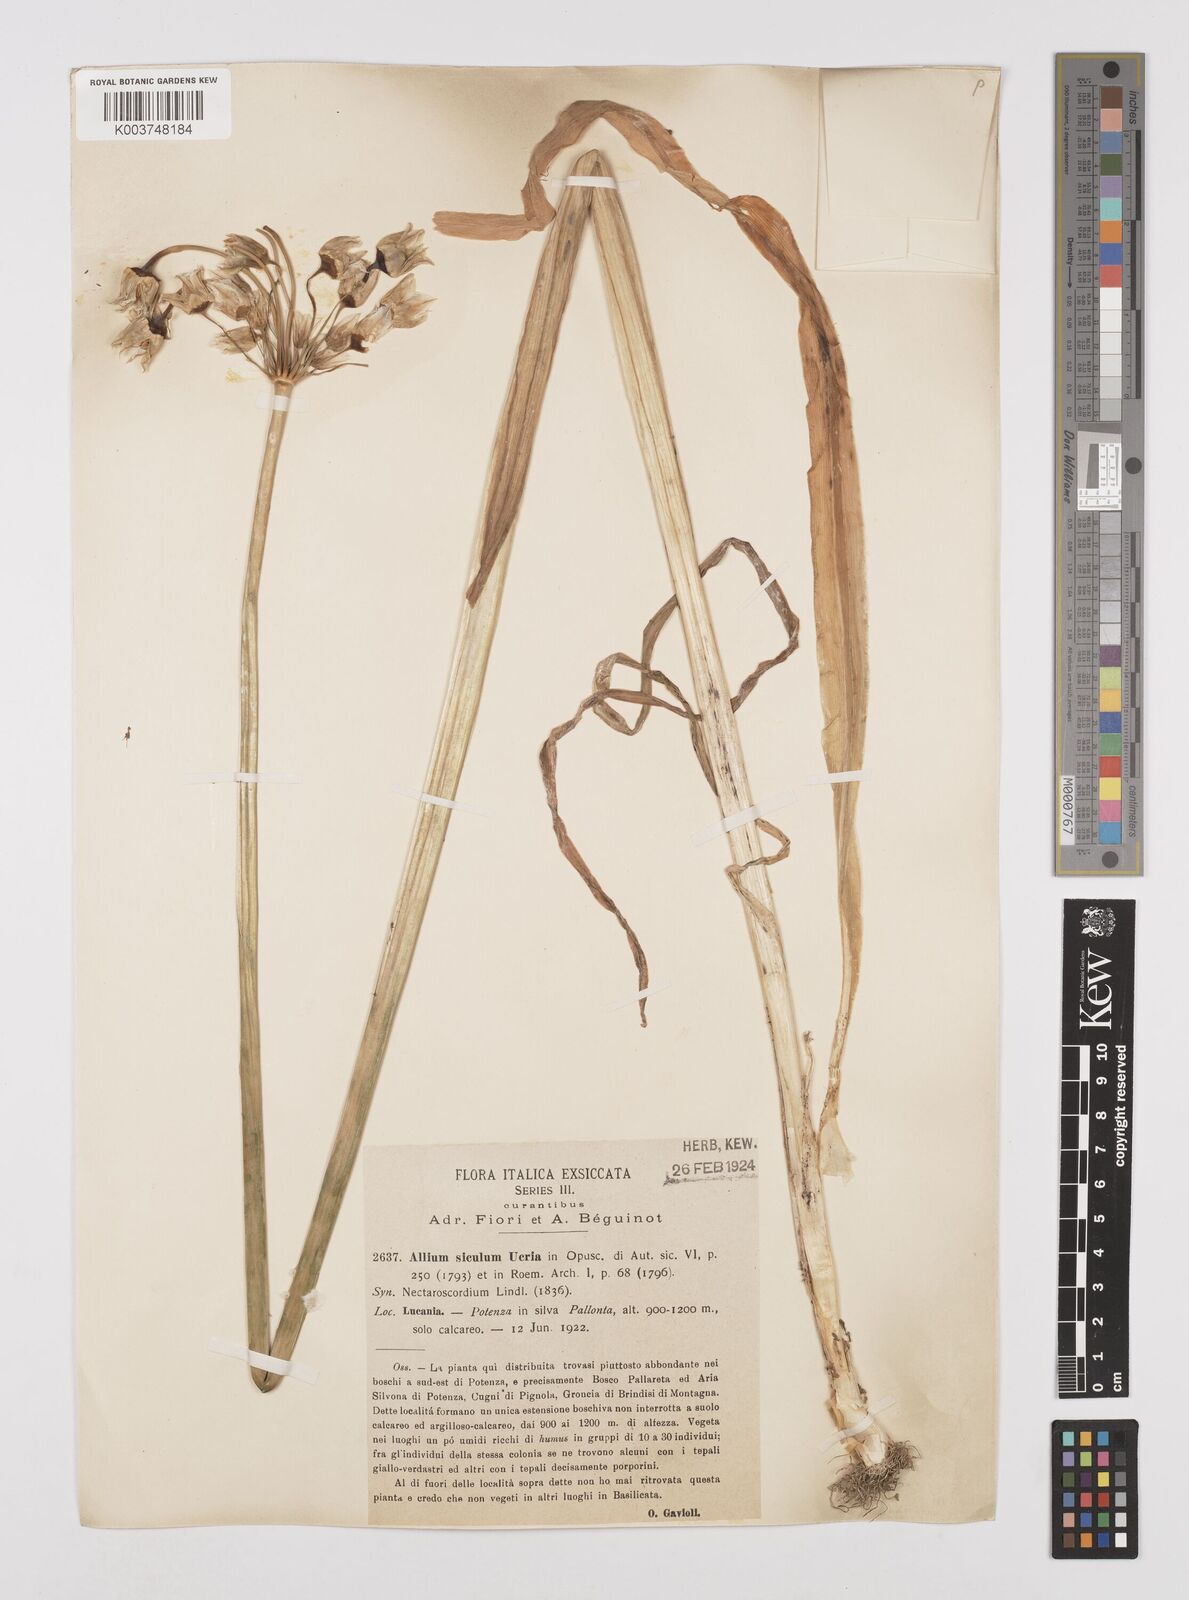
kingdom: Plantae
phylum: Tracheophyta
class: Liliopsida
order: Asparagales
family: Amaryllidaceae
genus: Allium
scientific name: Allium siculum
